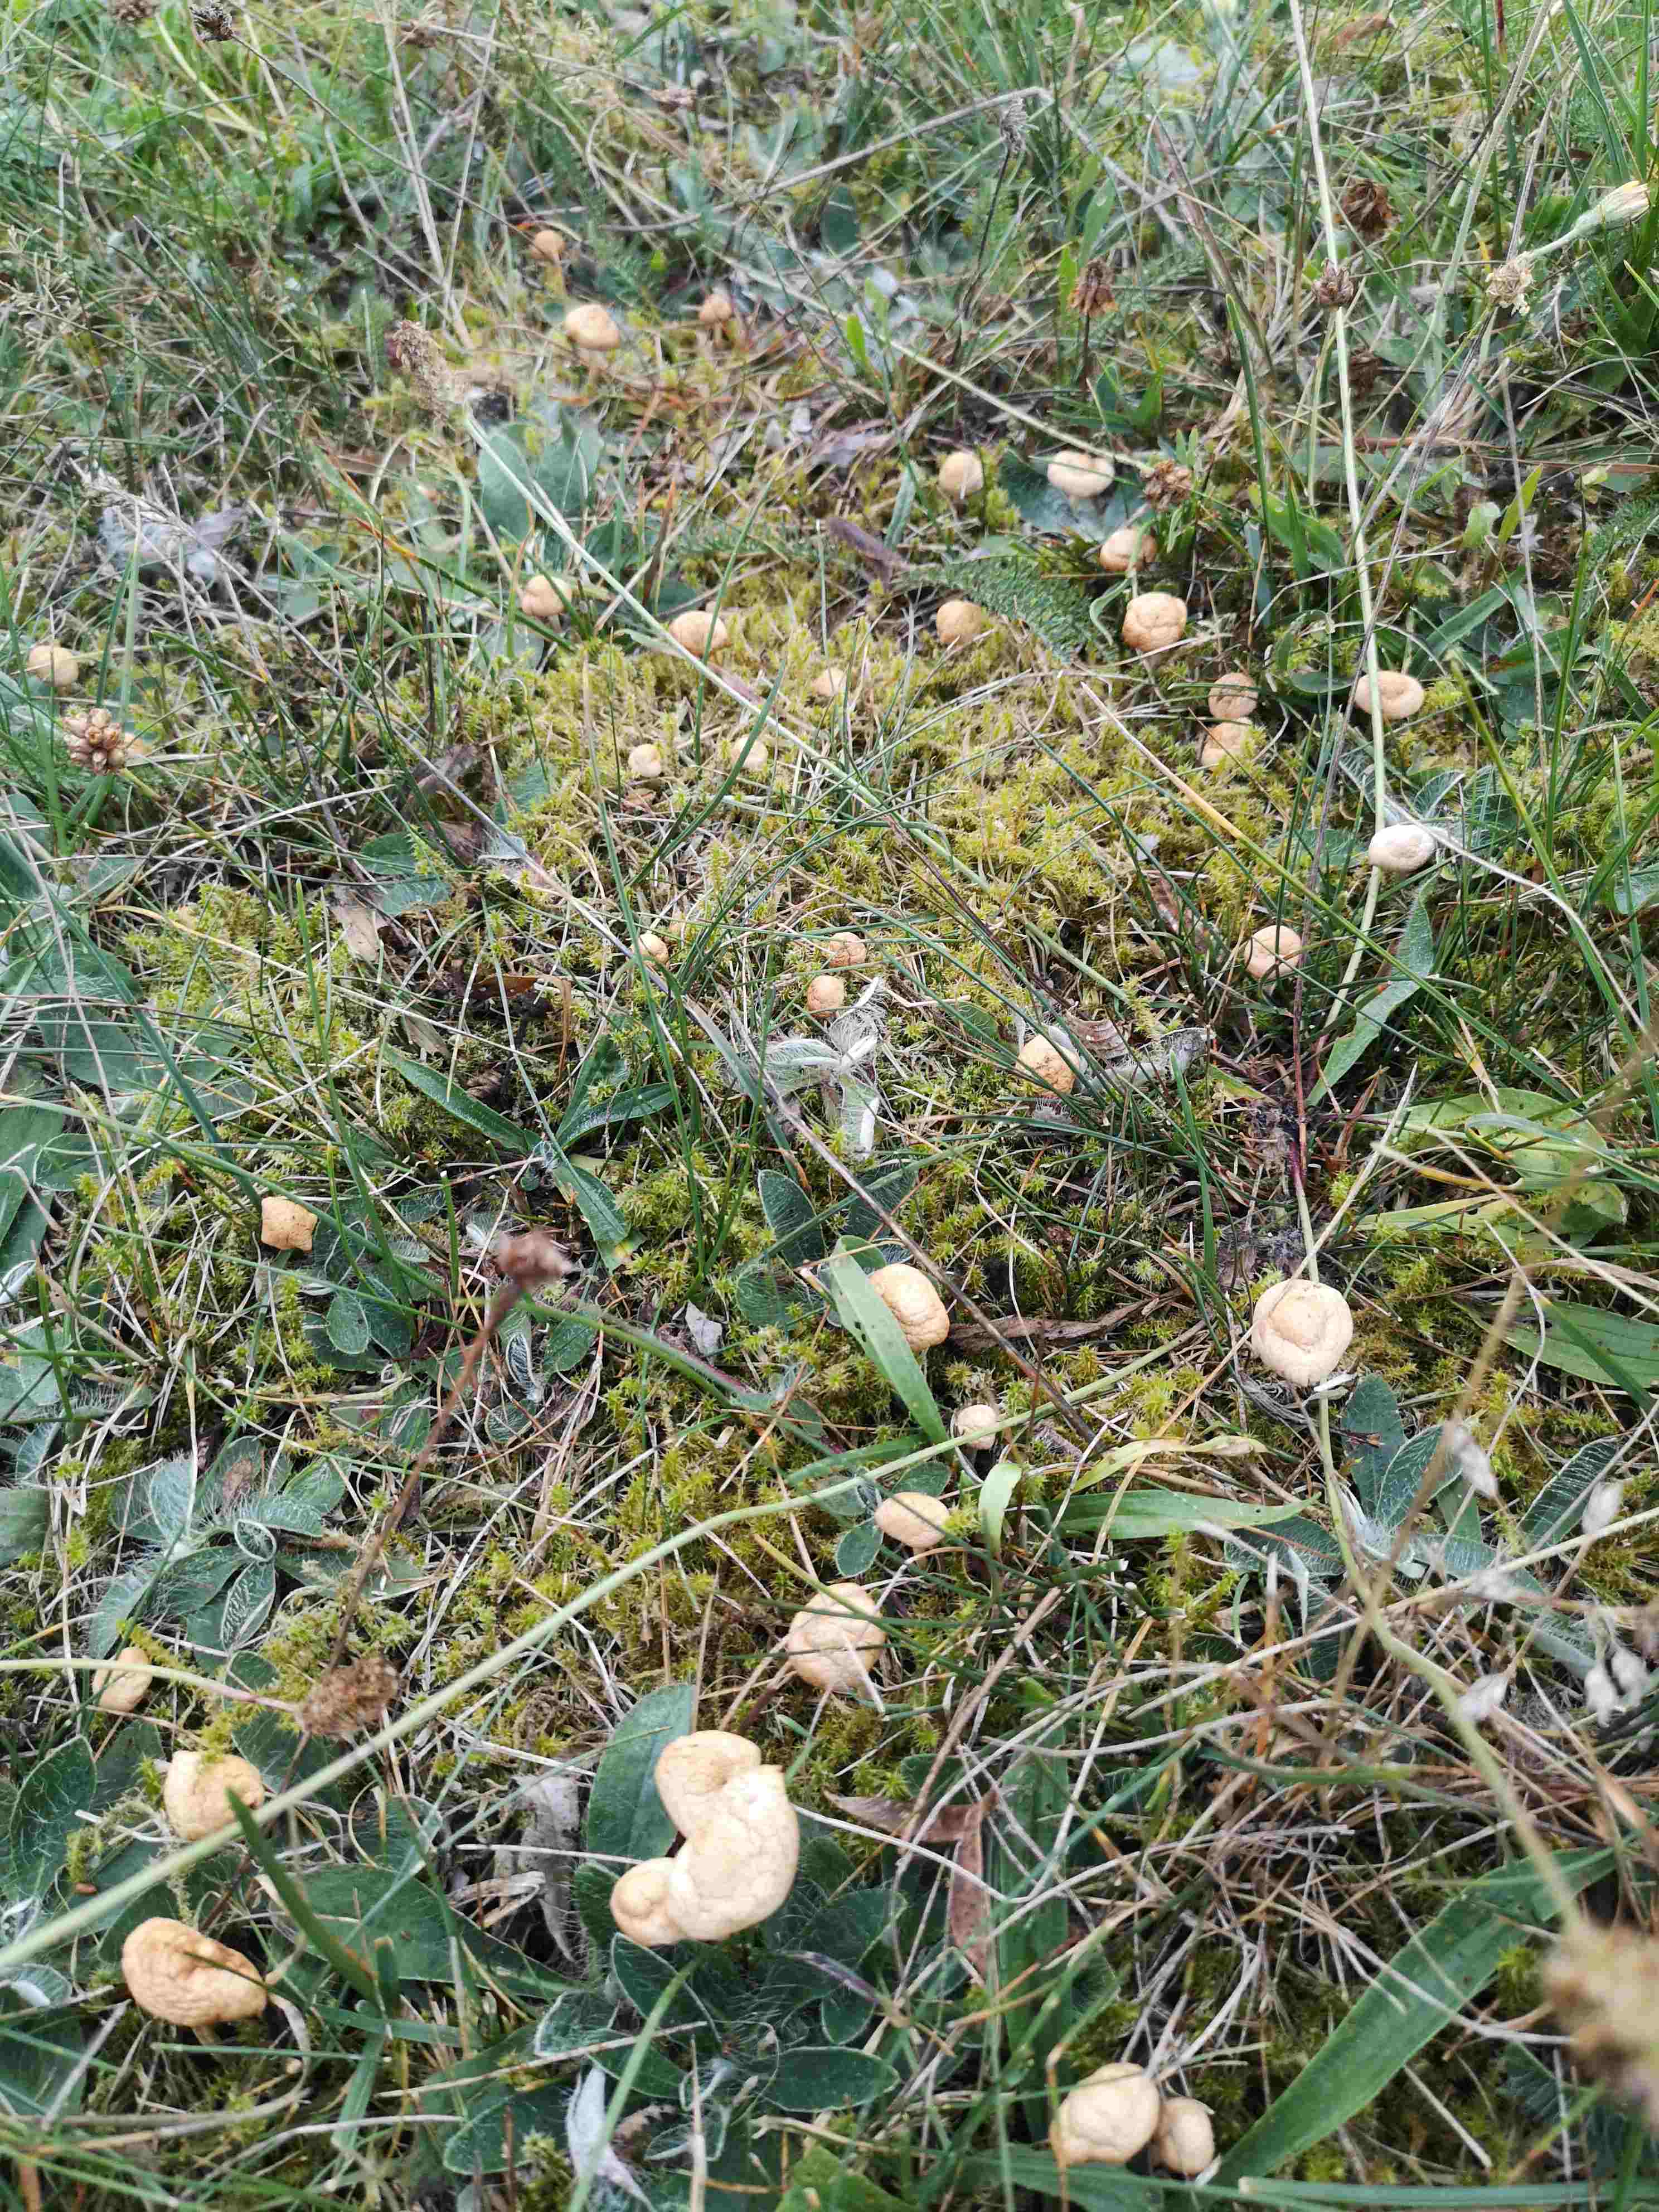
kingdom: Fungi
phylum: Basidiomycota
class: Agaricomycetes
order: Agaricales
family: Marasmiaceae
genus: Marasmius
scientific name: Marasmius oreades
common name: elledans-bruskhat
